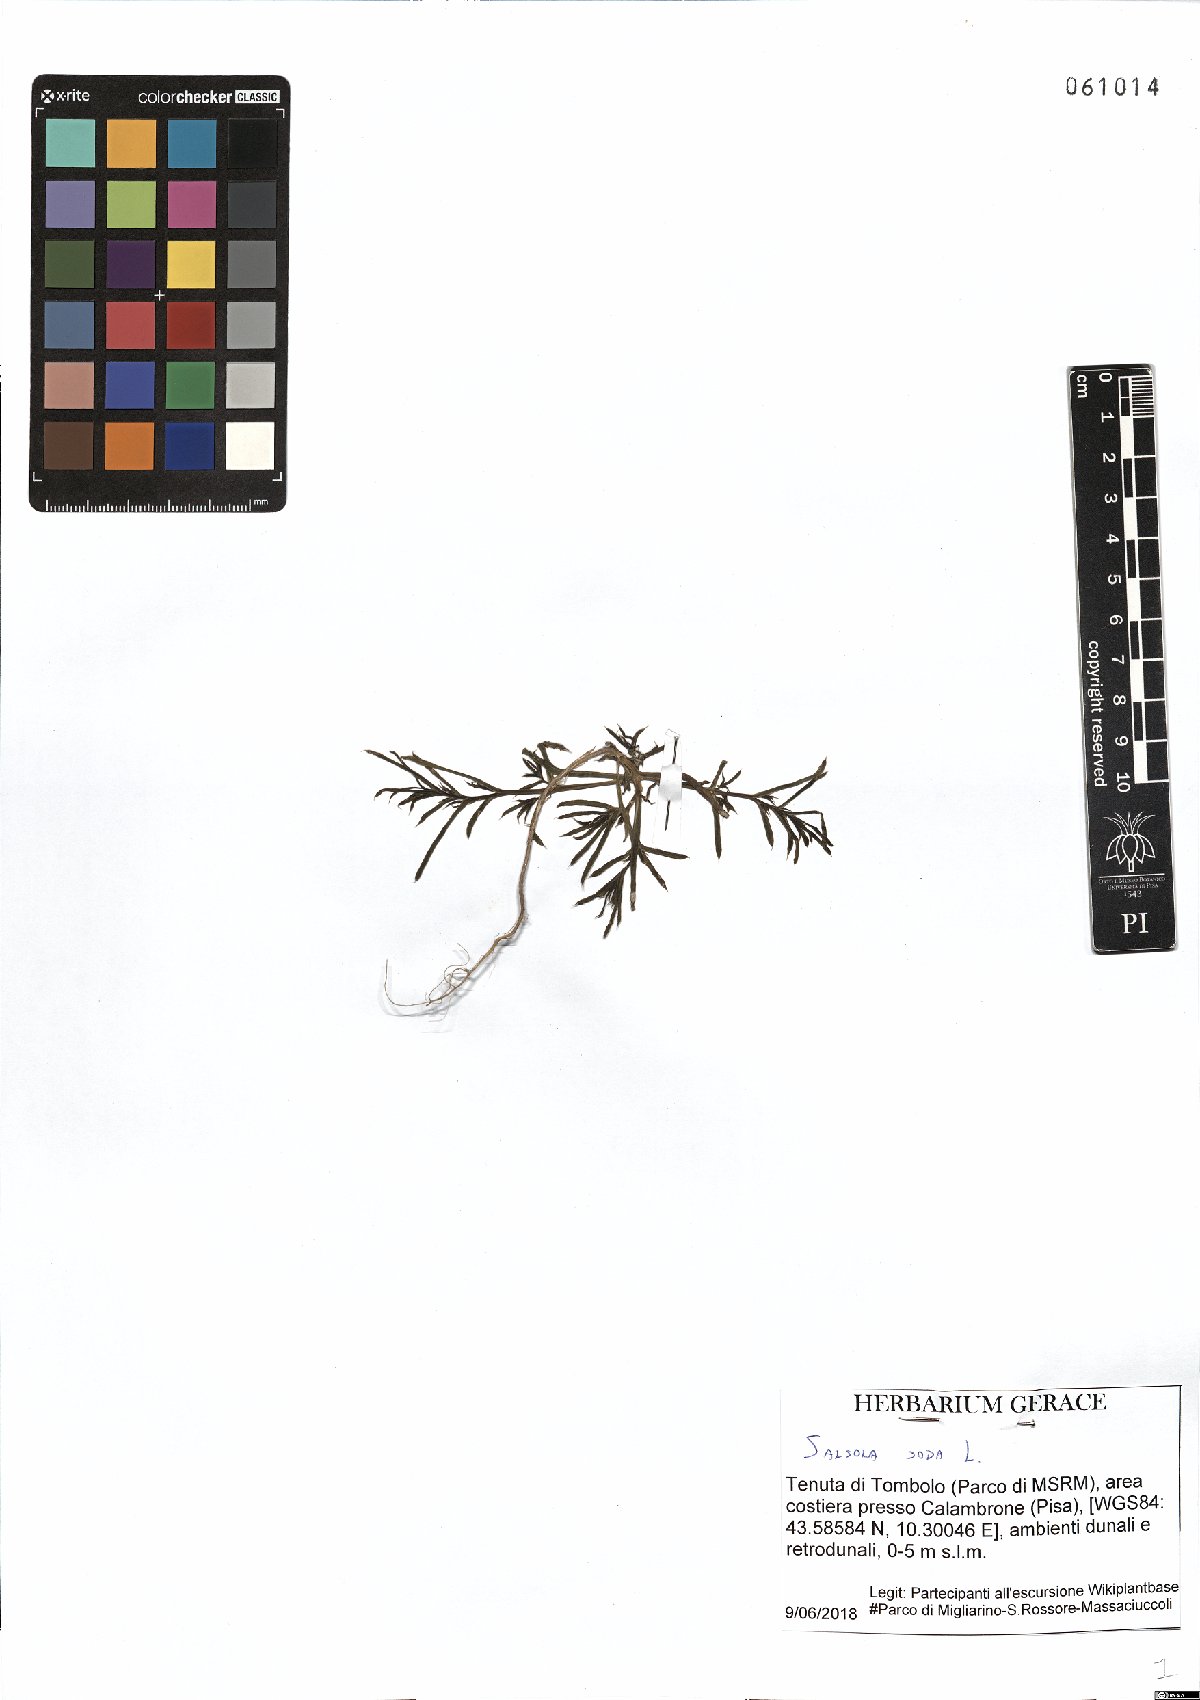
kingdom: Plantae
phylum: Tracheophyta
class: Magnoliopsida
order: Caryophyllales
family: Amaranthaceae
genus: Soda
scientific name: Soda inermis
